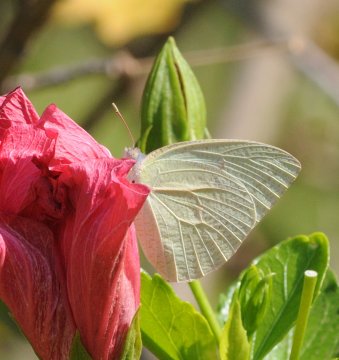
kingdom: Animalia
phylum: Arthropoda
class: Insecta
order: Lepidoptera
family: Pieridae
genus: Catopsilia
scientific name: Catopsilia florella
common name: African Migrant
